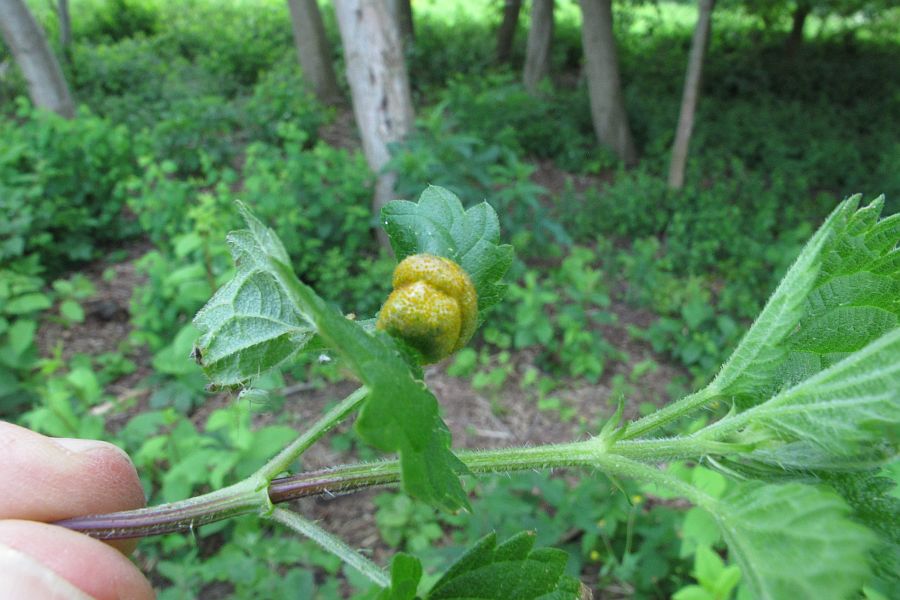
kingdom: Fungi
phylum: Basidiomycota
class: Pucciniomycetes
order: Pucciniales
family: Pucciniaceae
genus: Puccinia
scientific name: Puccinia urticata
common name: nældegalle-tvecellerust
